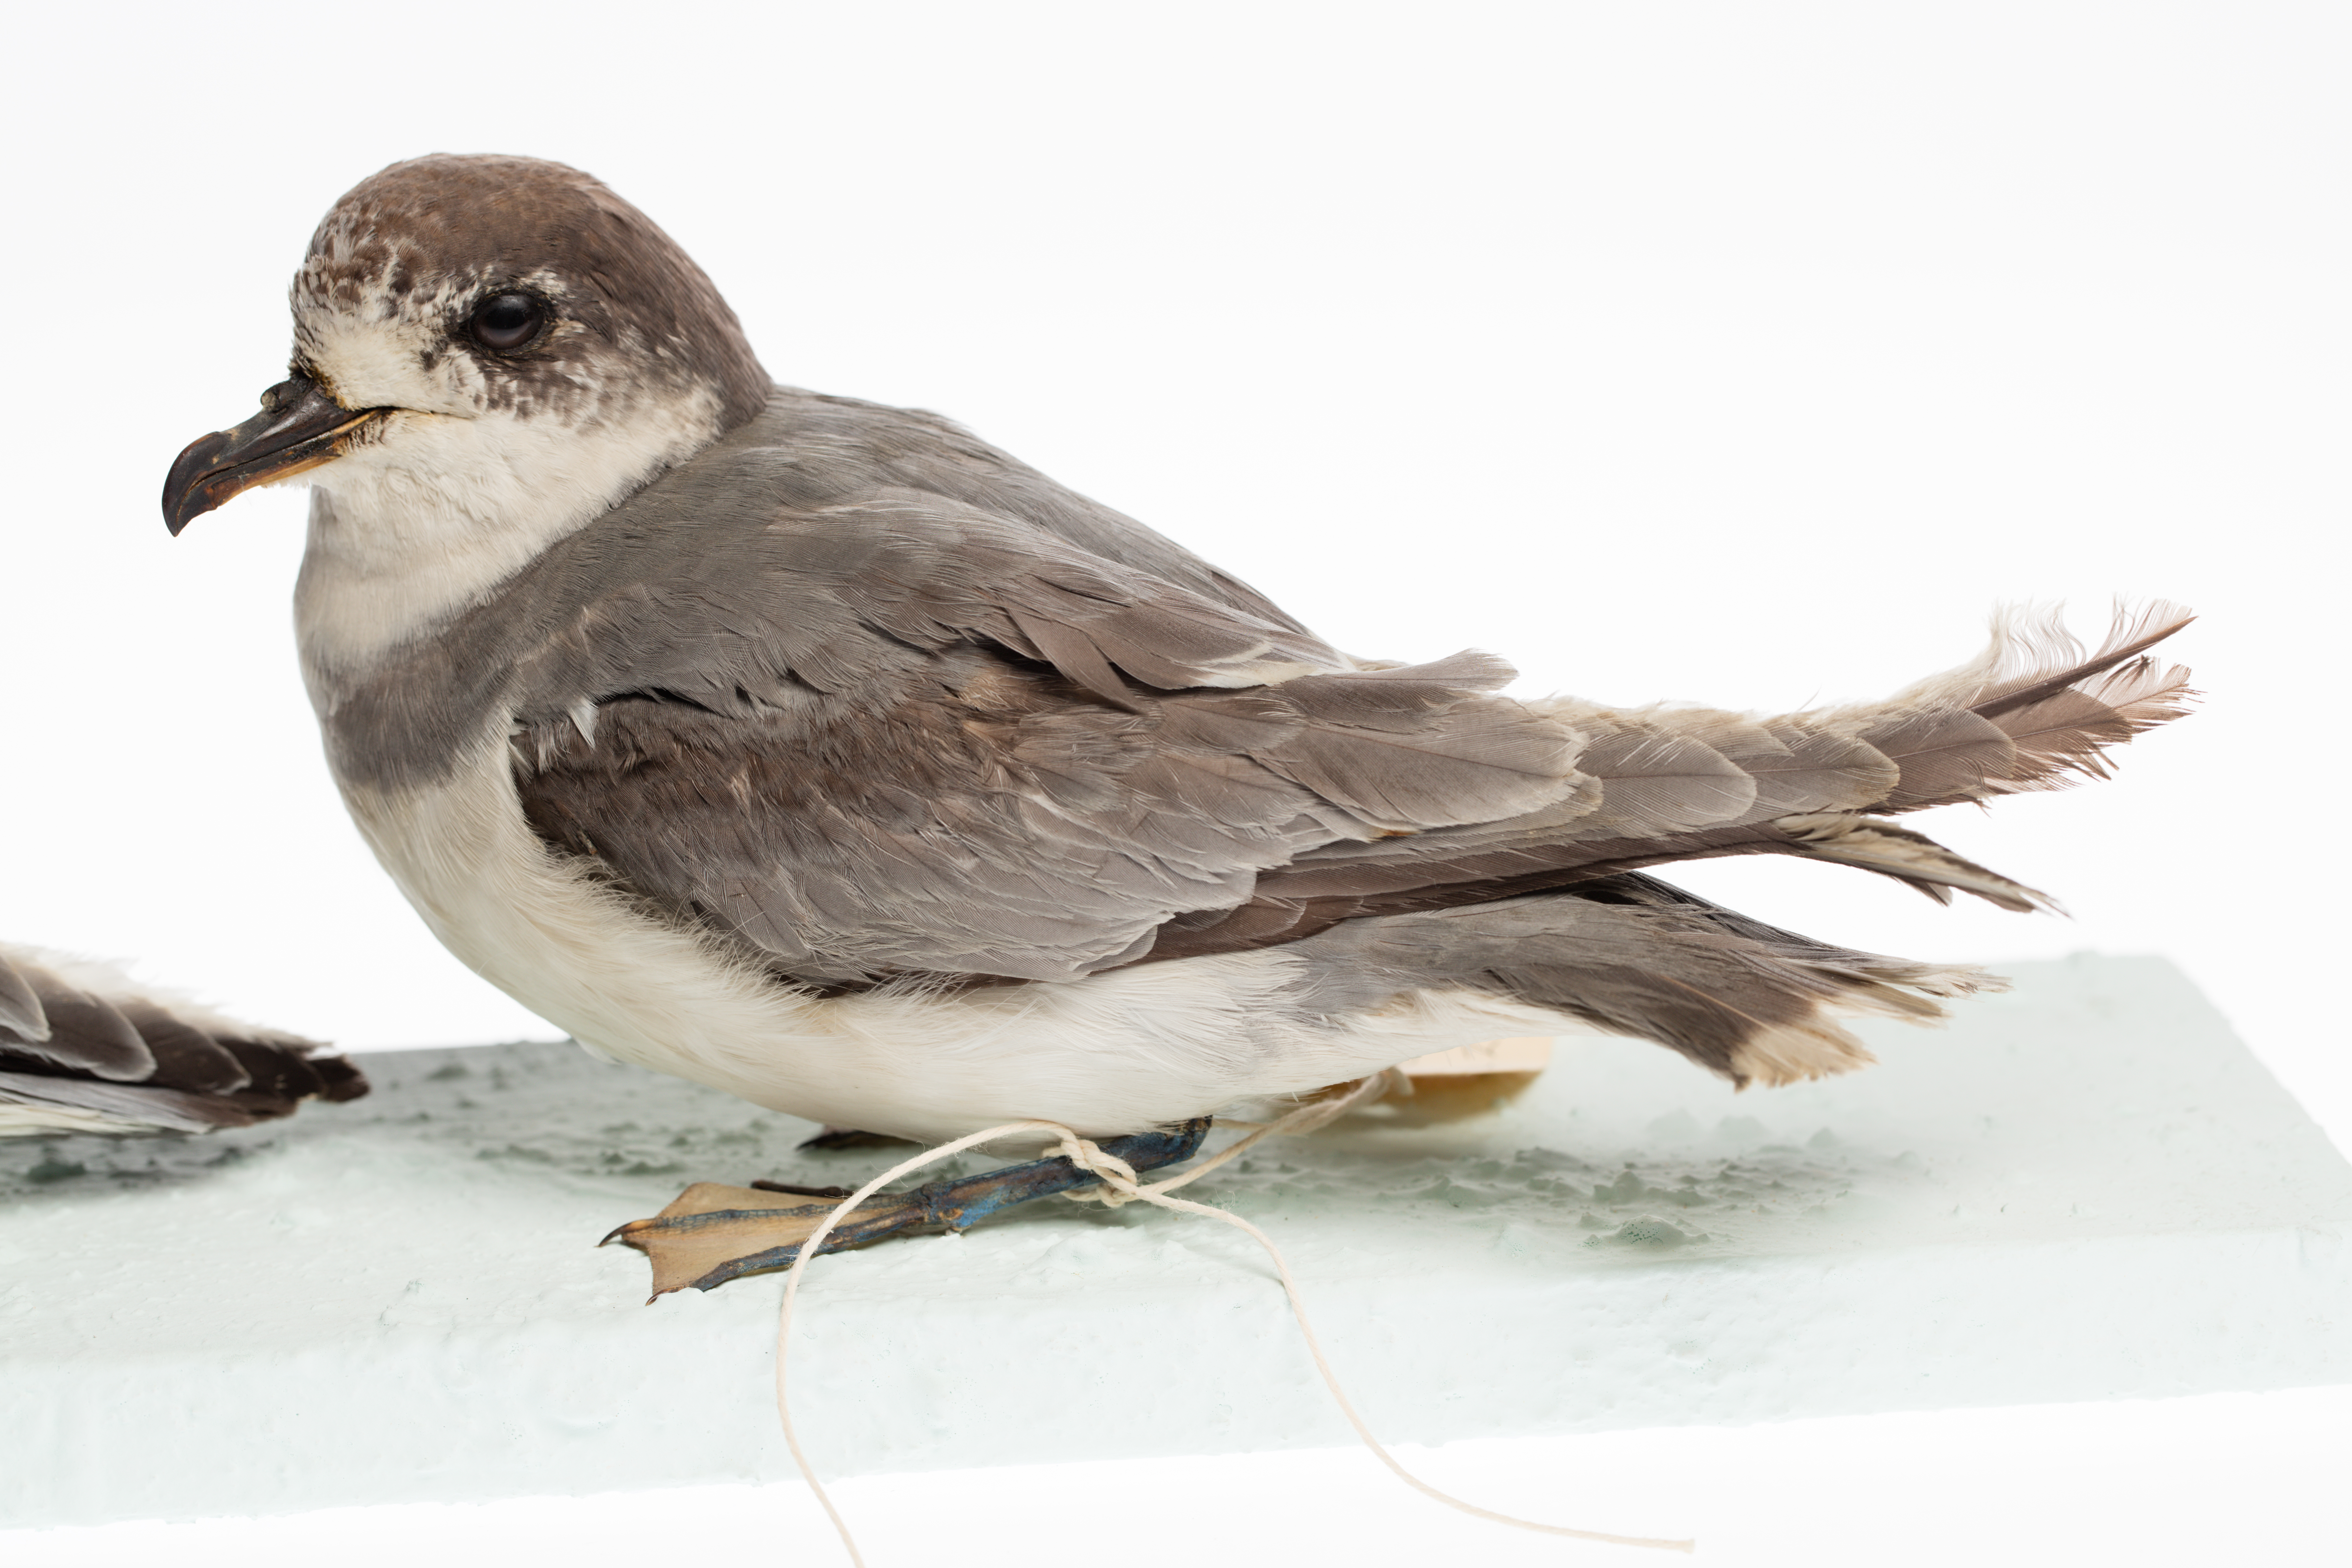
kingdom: Animalia
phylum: Chordata
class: Aves
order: Procellariiformes
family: Procellariidae
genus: Halobaena
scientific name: Halobaena caerulea
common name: Blue petrel
